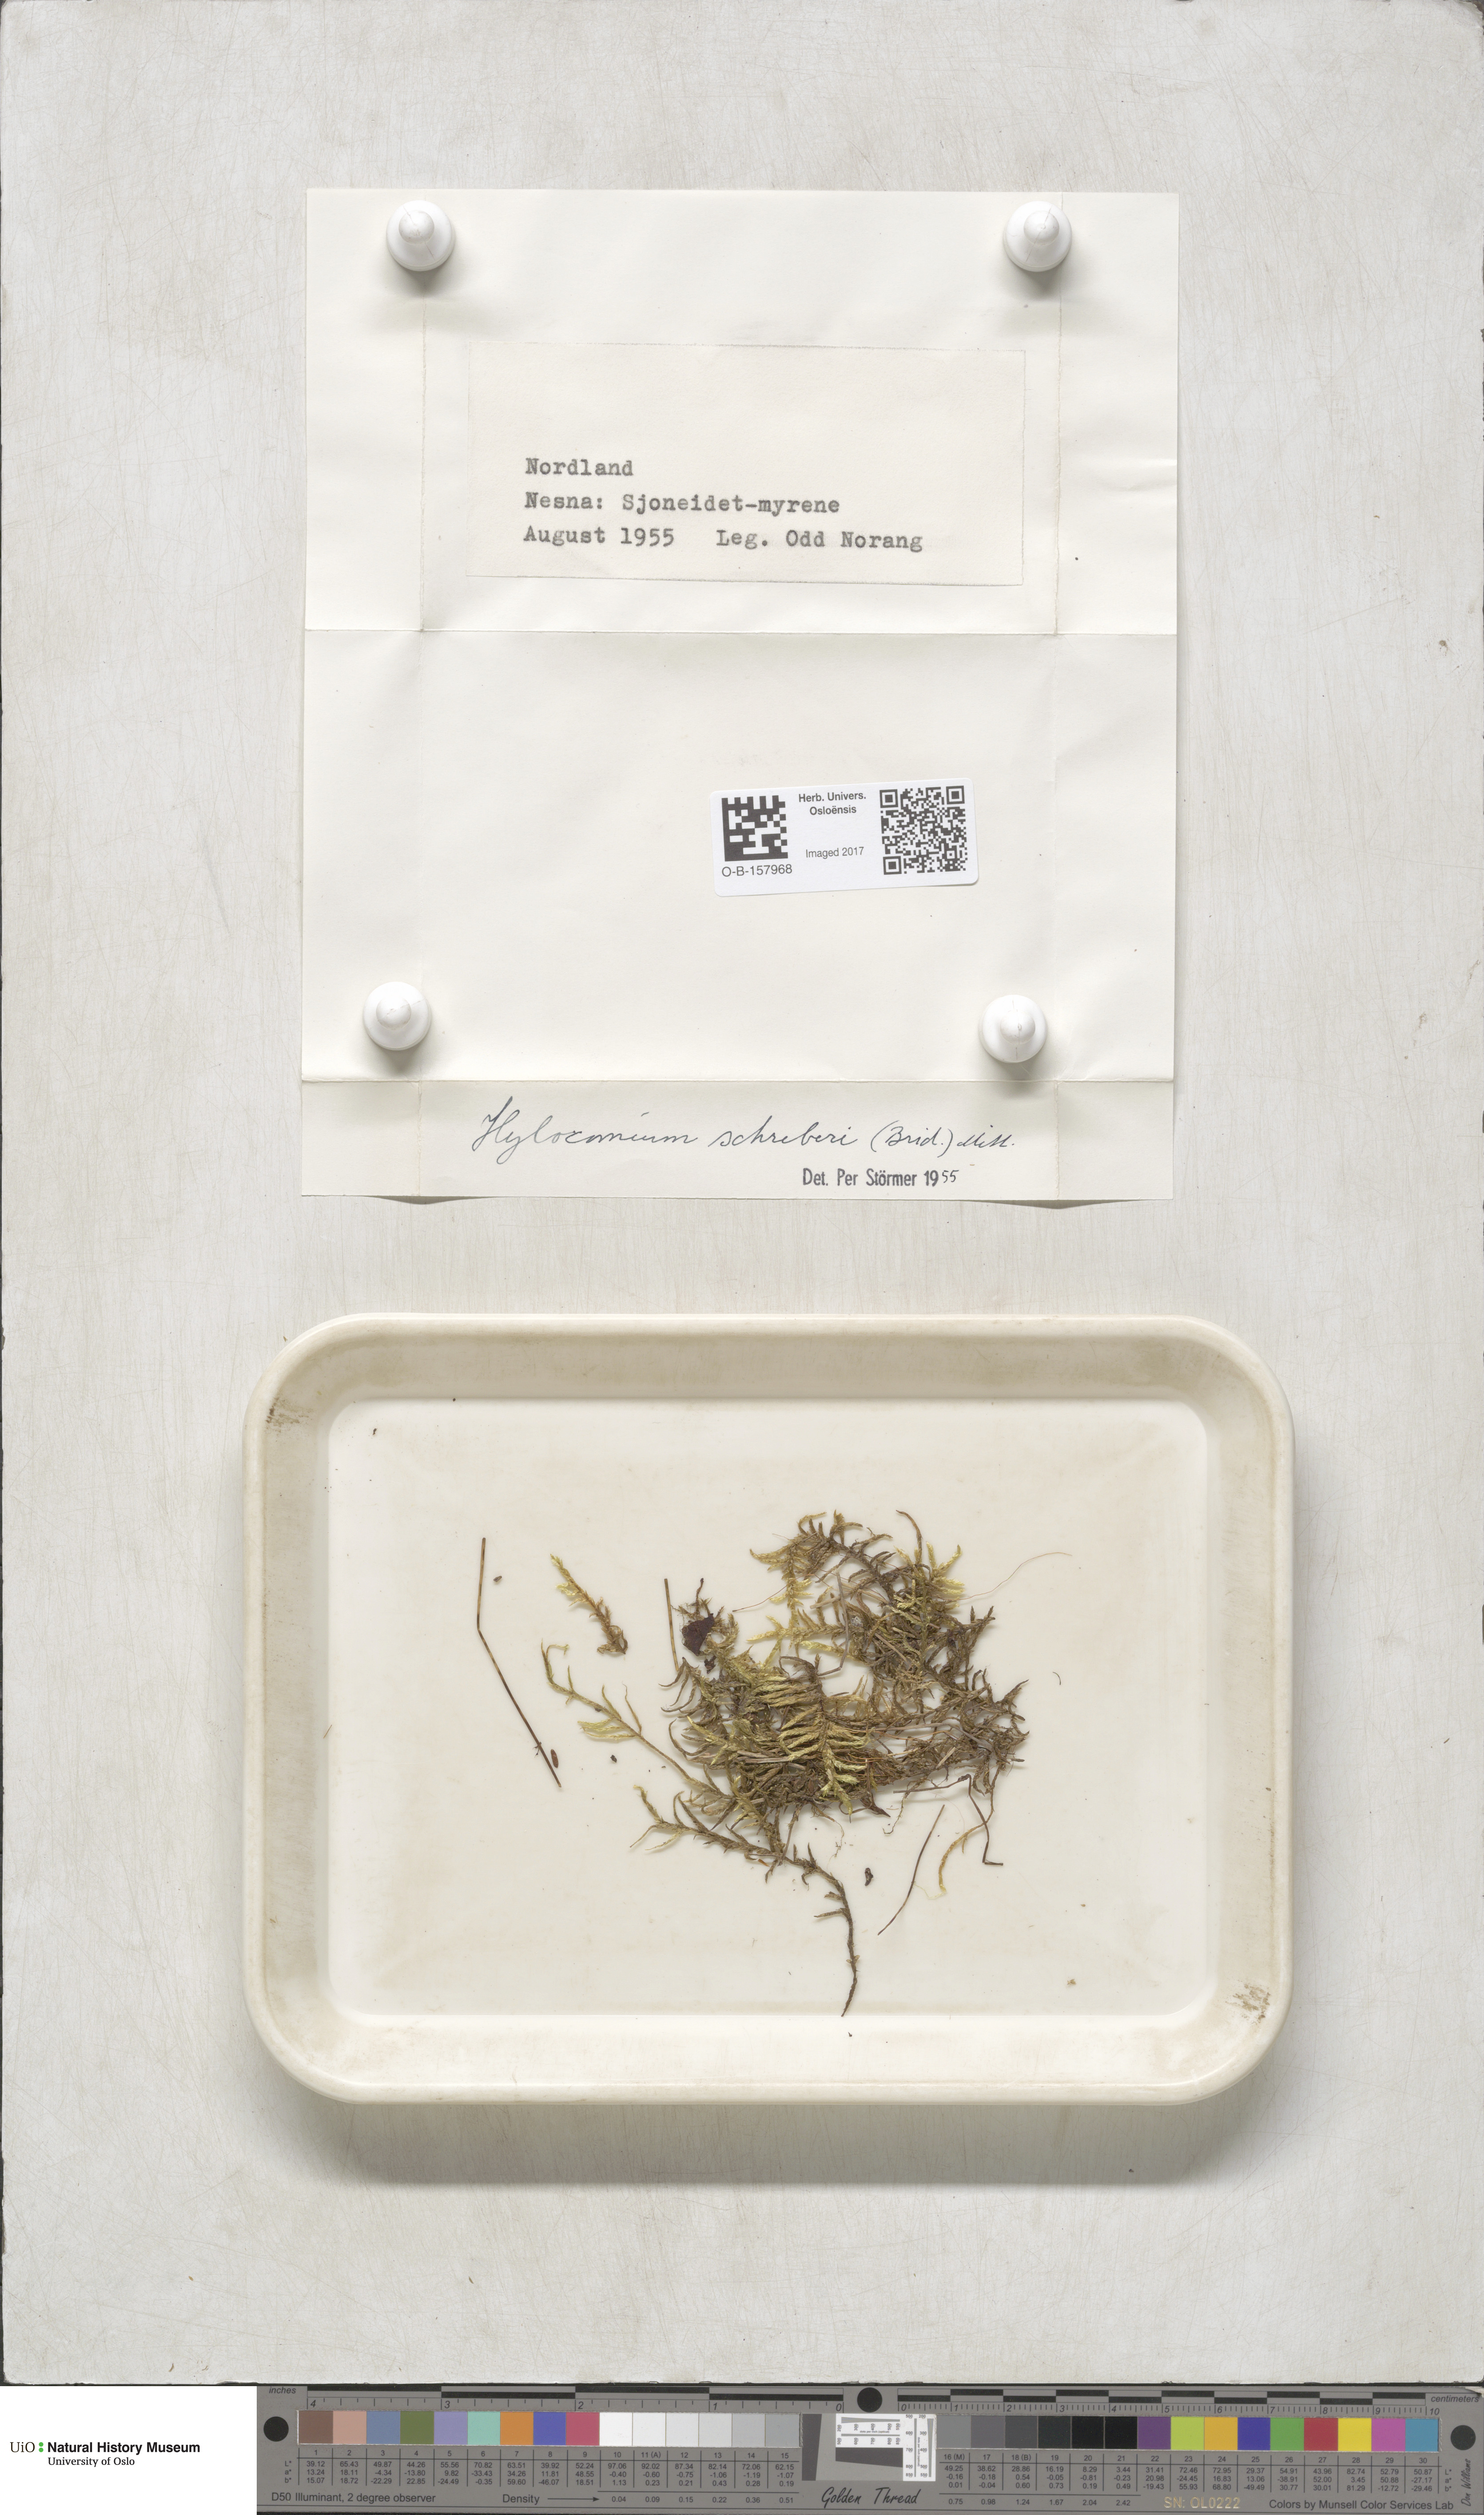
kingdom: Plantae
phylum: Bryophyta
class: Bryopsida
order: Hypnales
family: Hylocomiaceae
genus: Pleurozium
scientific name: Pleurozium schreberi
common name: Red-stemmed feather moss
